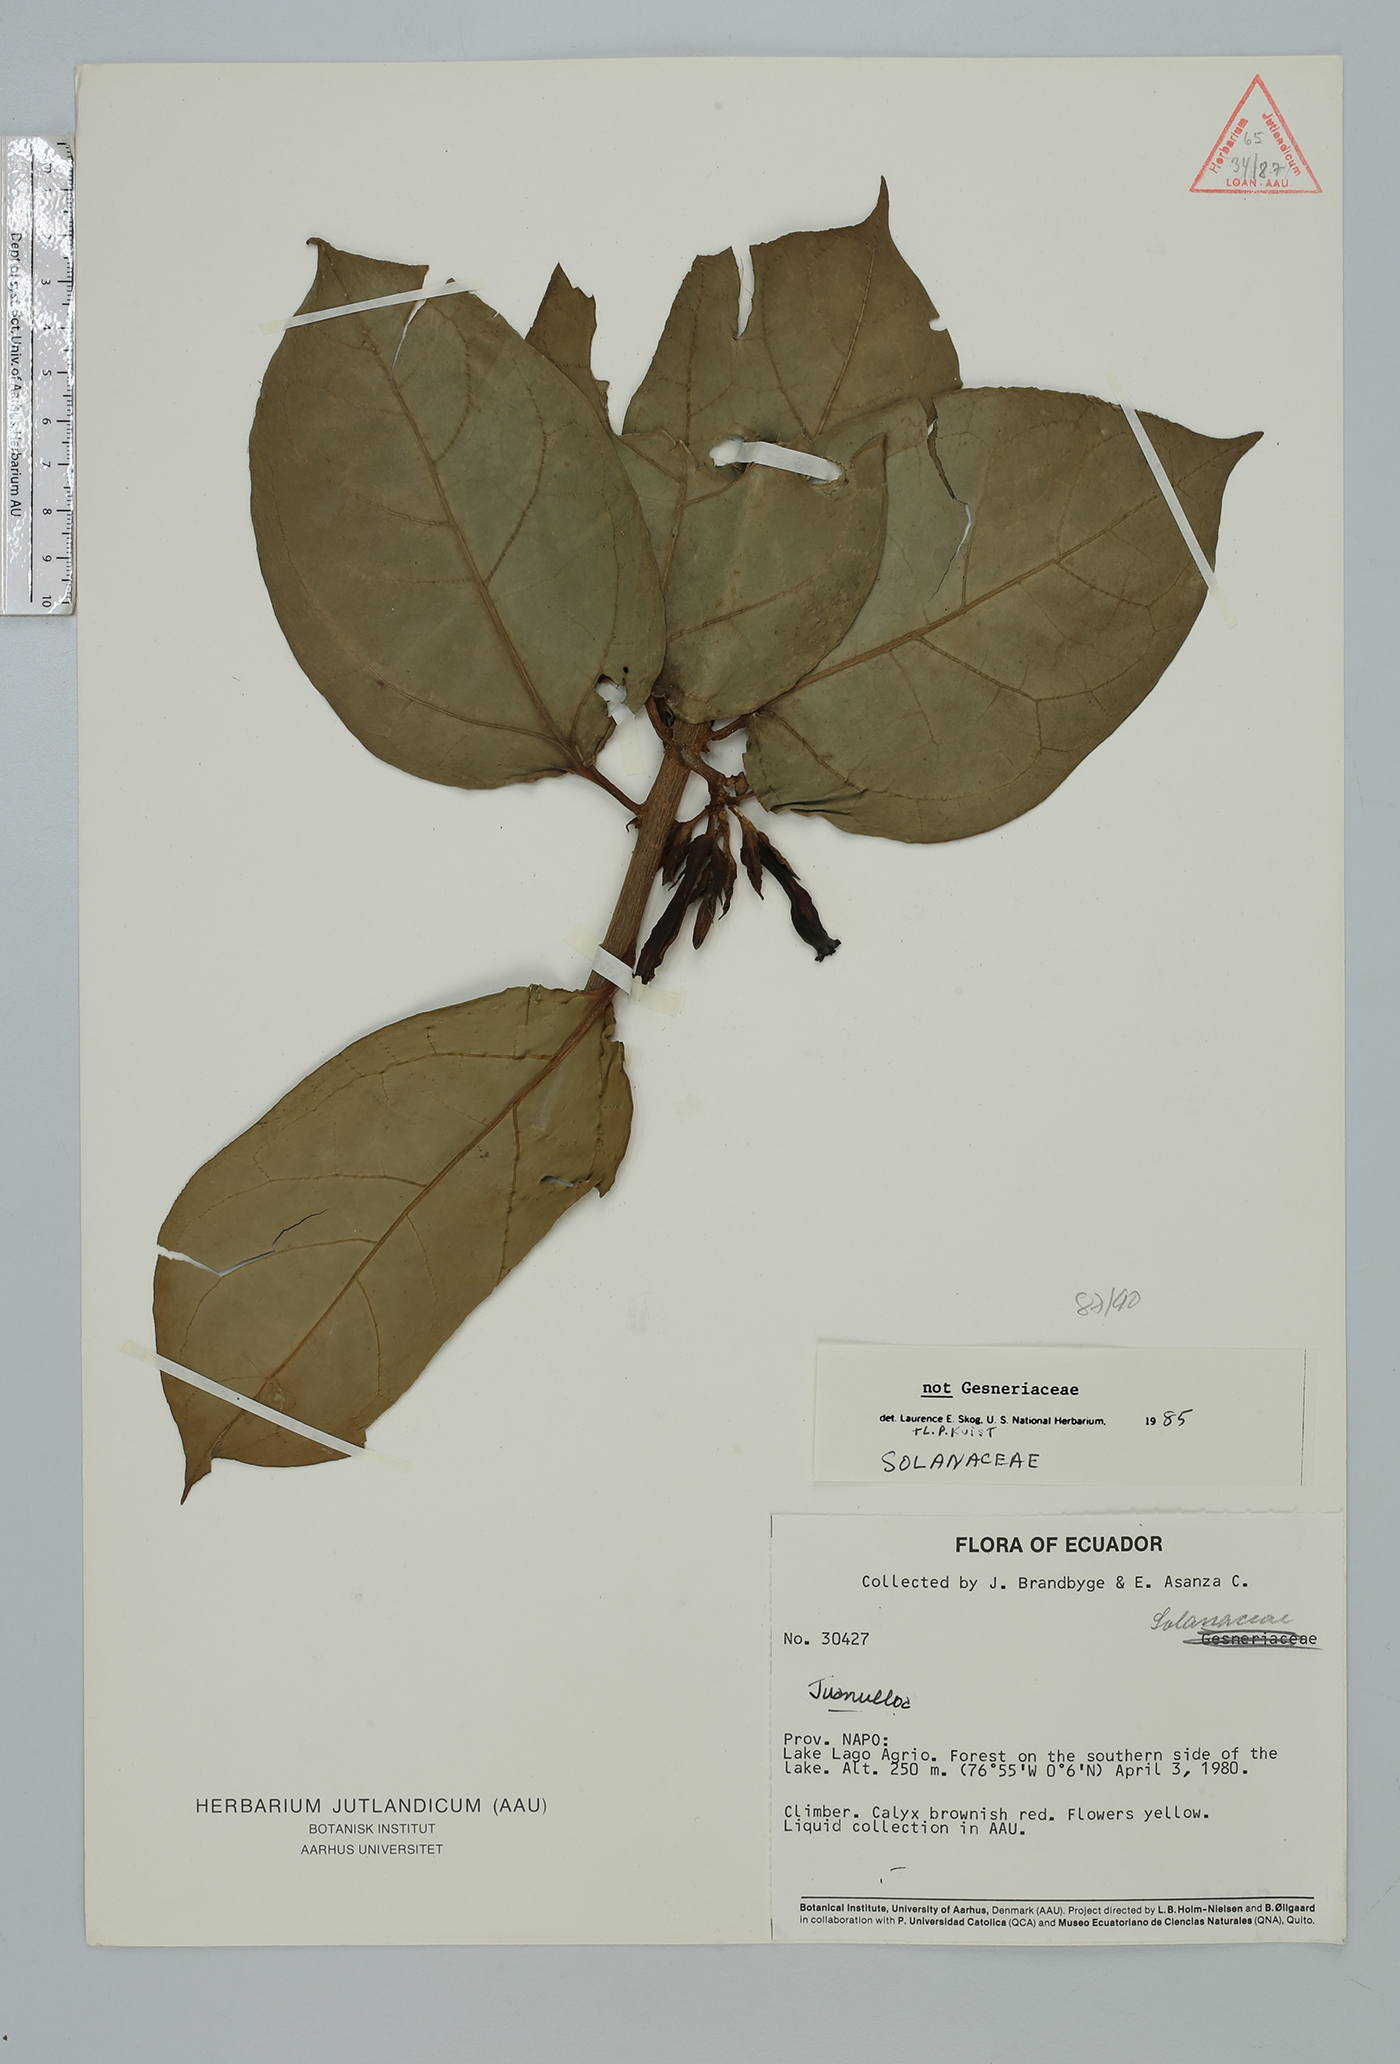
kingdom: Plantae
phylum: Tracheophyta
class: Magnoliopsida
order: Solanales
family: Solanaceae
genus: Hawkesiophyton
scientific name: Hawkesiophyton ochraceum
